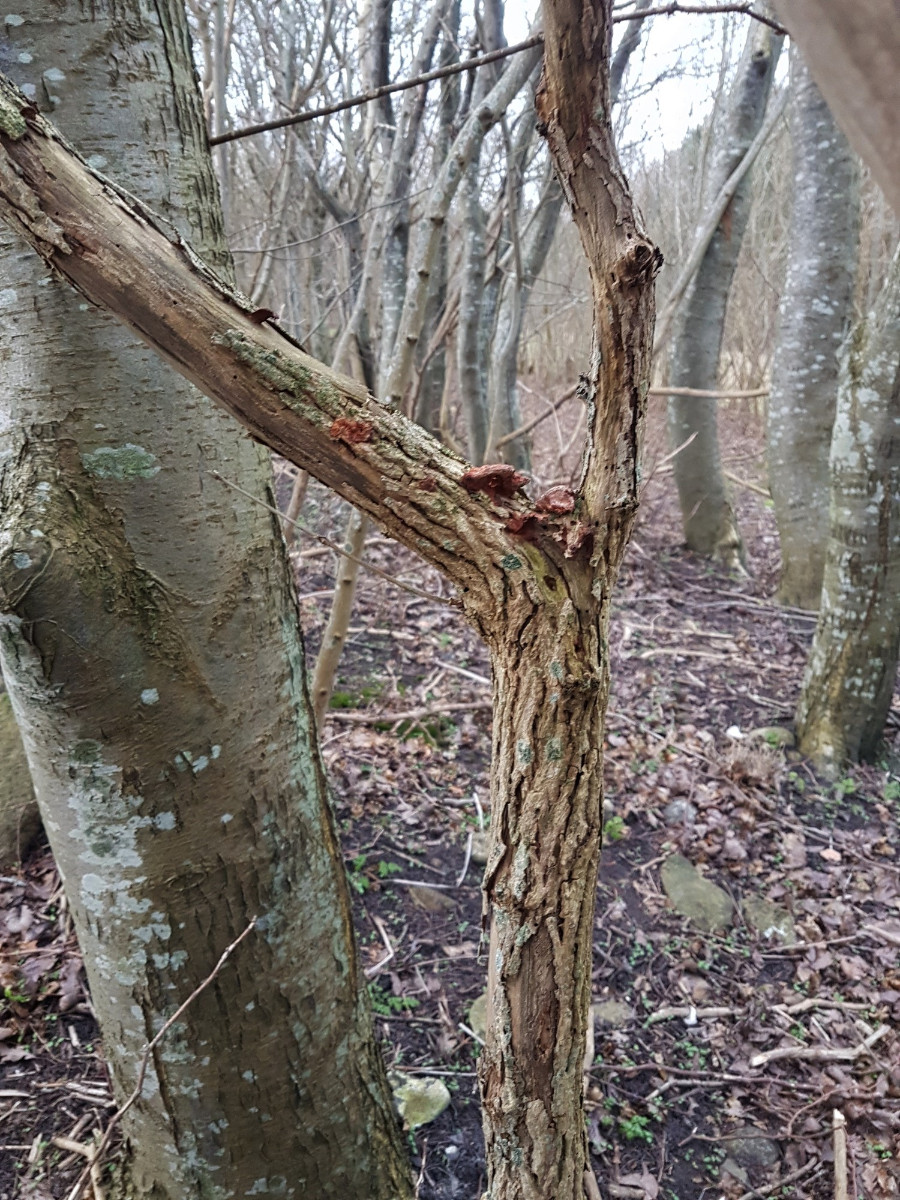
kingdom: Fungi
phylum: Basidiomycota
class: Agaricomycetes
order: Polyporales
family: Phanerochaetaceae
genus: Hapalopilus
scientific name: Hapalopilus rutilans
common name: rødlig okkerporesvamp
